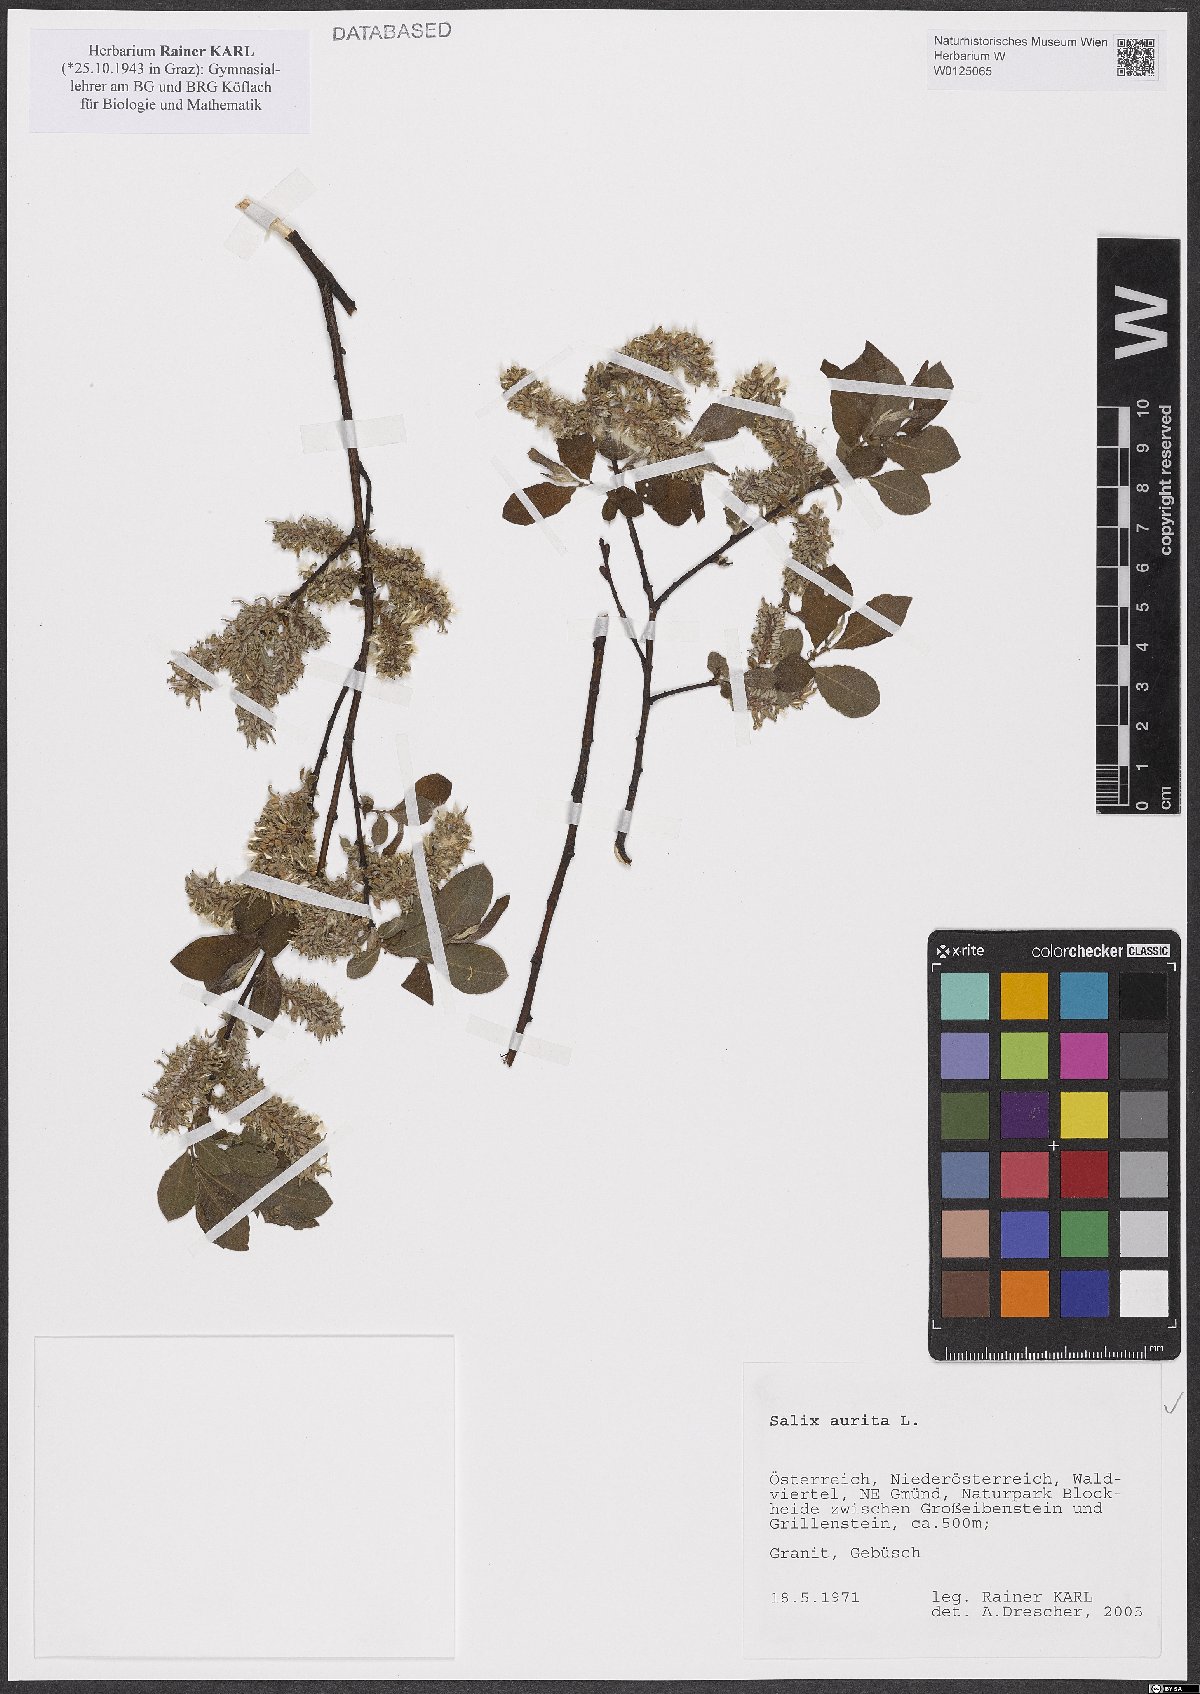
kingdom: Plantae
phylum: Tracheophyta
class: Magnoliopsida
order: Malpighiales
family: Salicaceae
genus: Salix
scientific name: Salix aurita
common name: Eared willow
